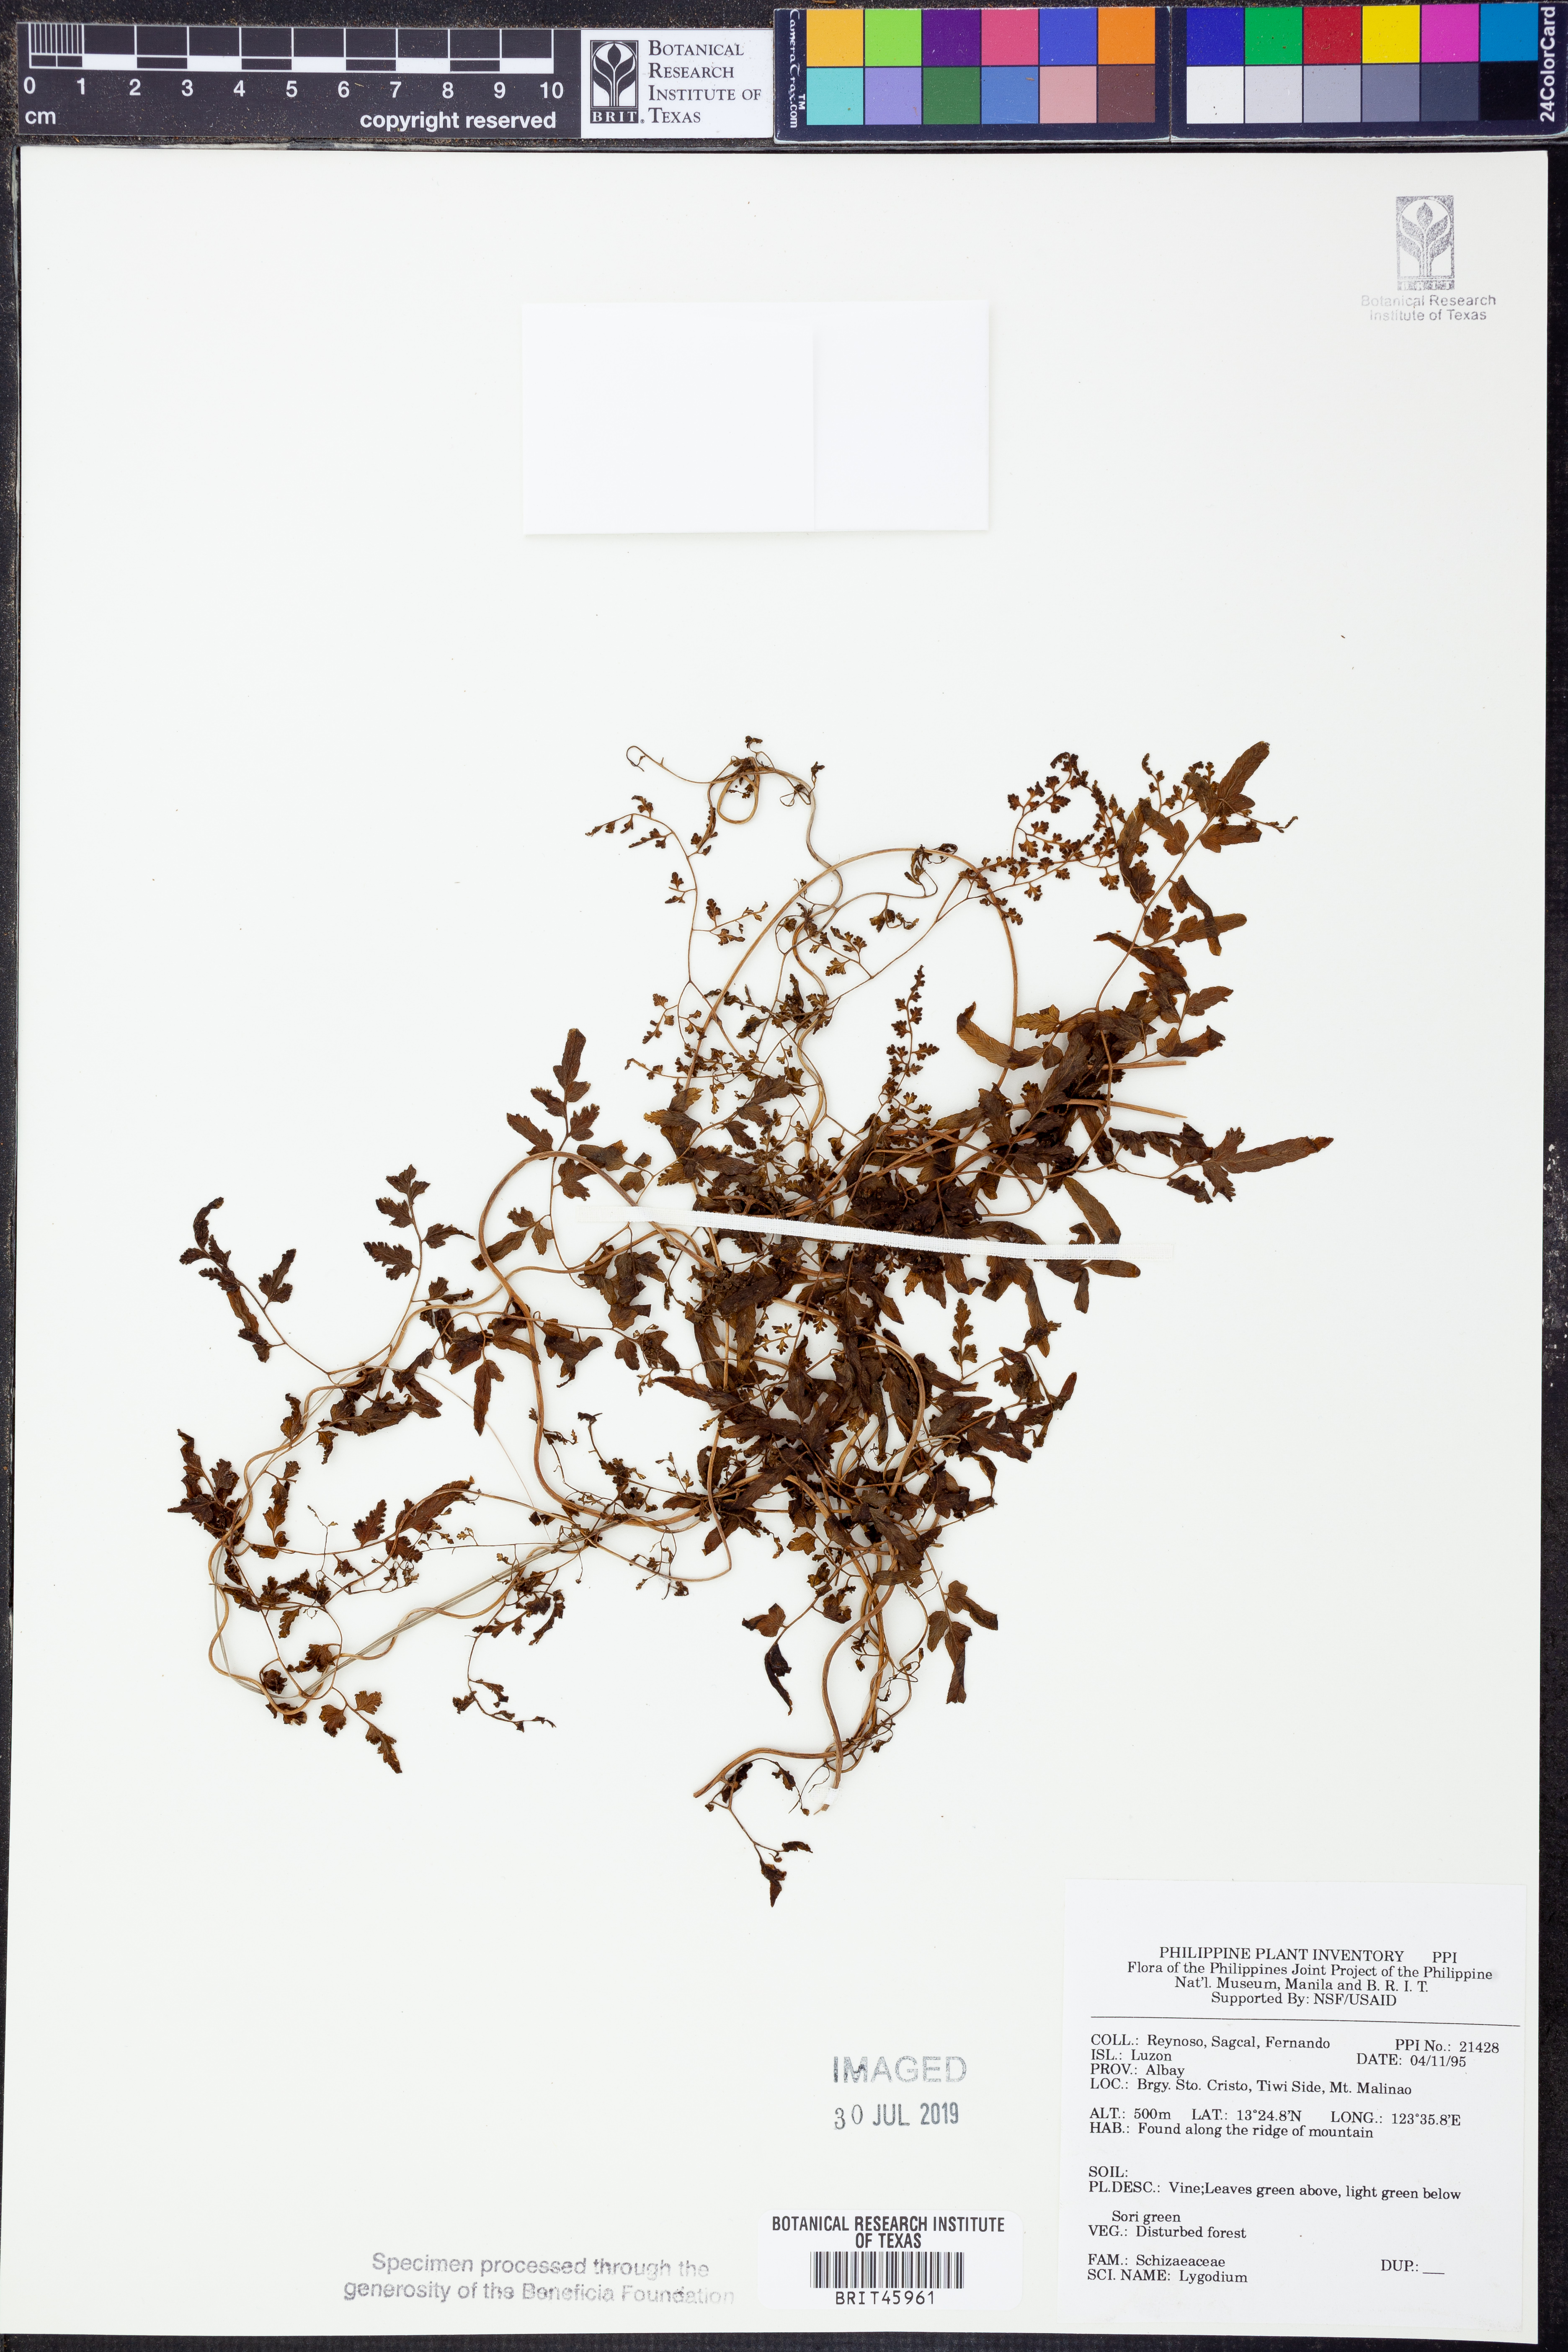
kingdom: Plantae
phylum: Tracheophyta
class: Polypodiopsida
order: Schizaeales
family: Lygodiaceae
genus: Lygodium
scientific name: Lygodium
